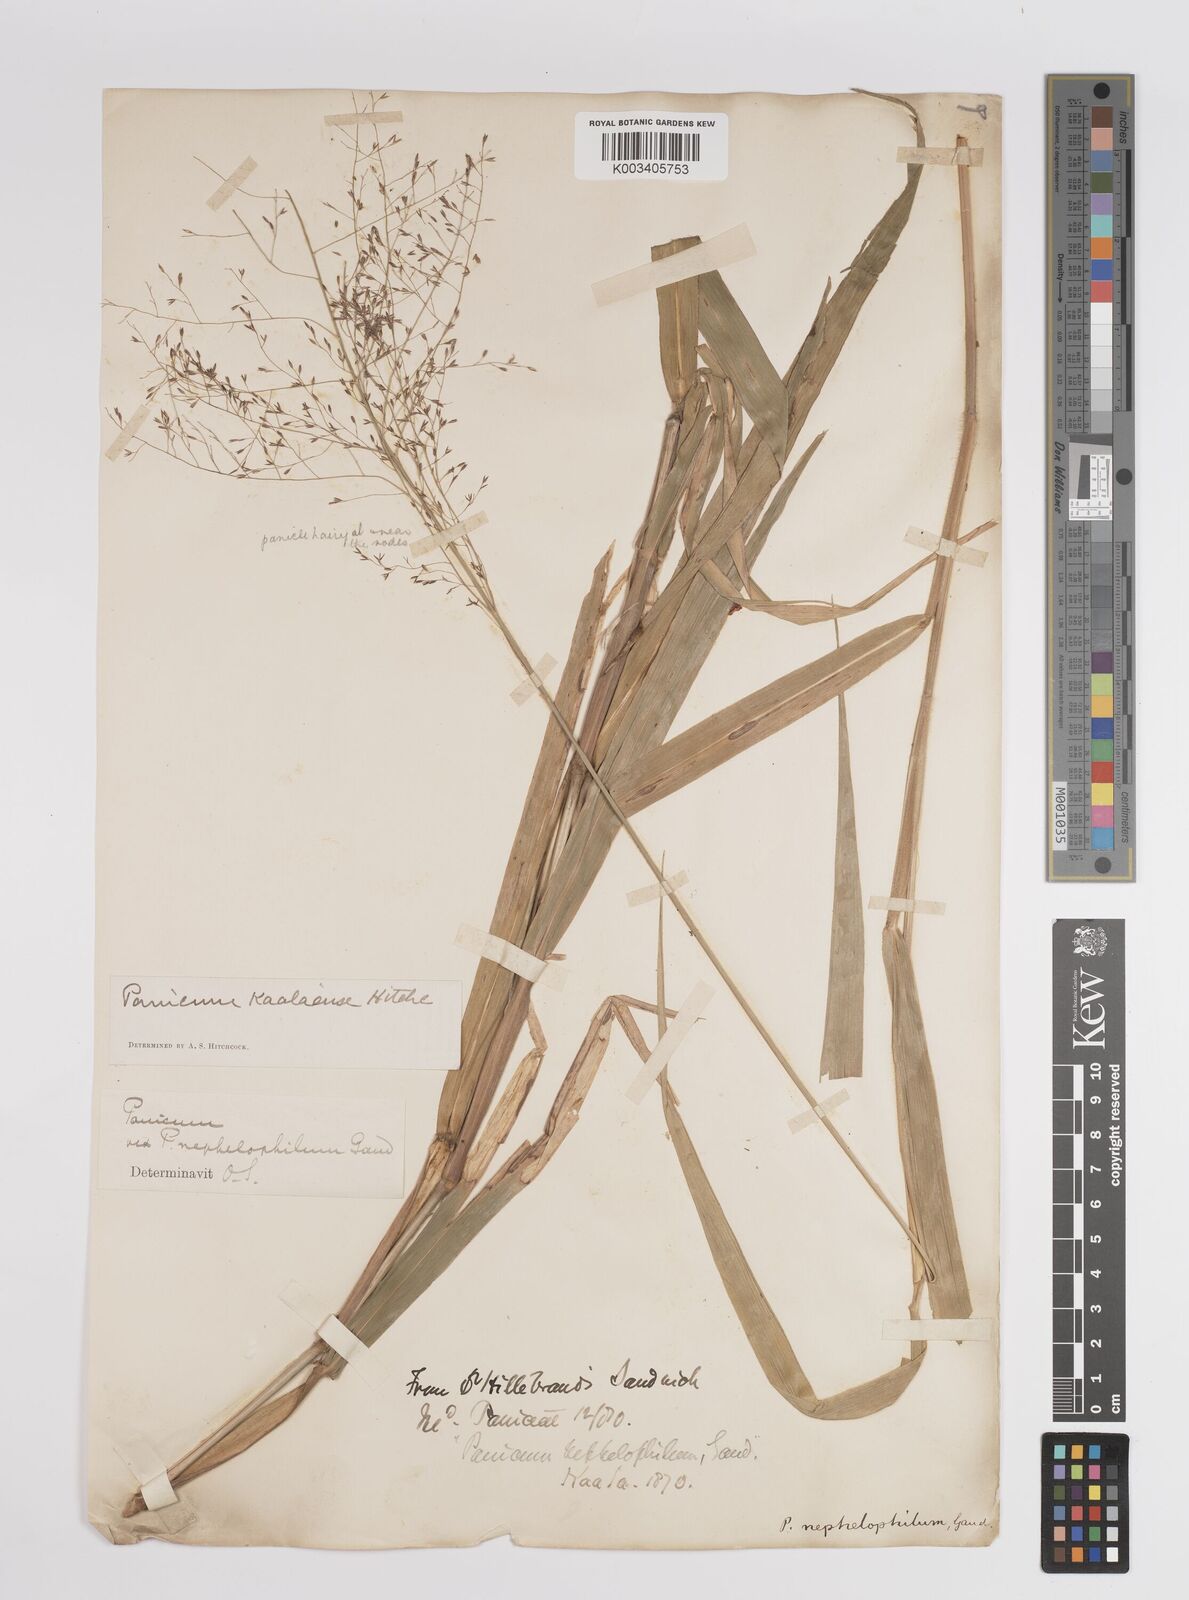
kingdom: Plantae
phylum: Tracheophyta
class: Liliopsida
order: Poales
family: Poaceae
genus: Panicum
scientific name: Panicum nephelophilum
